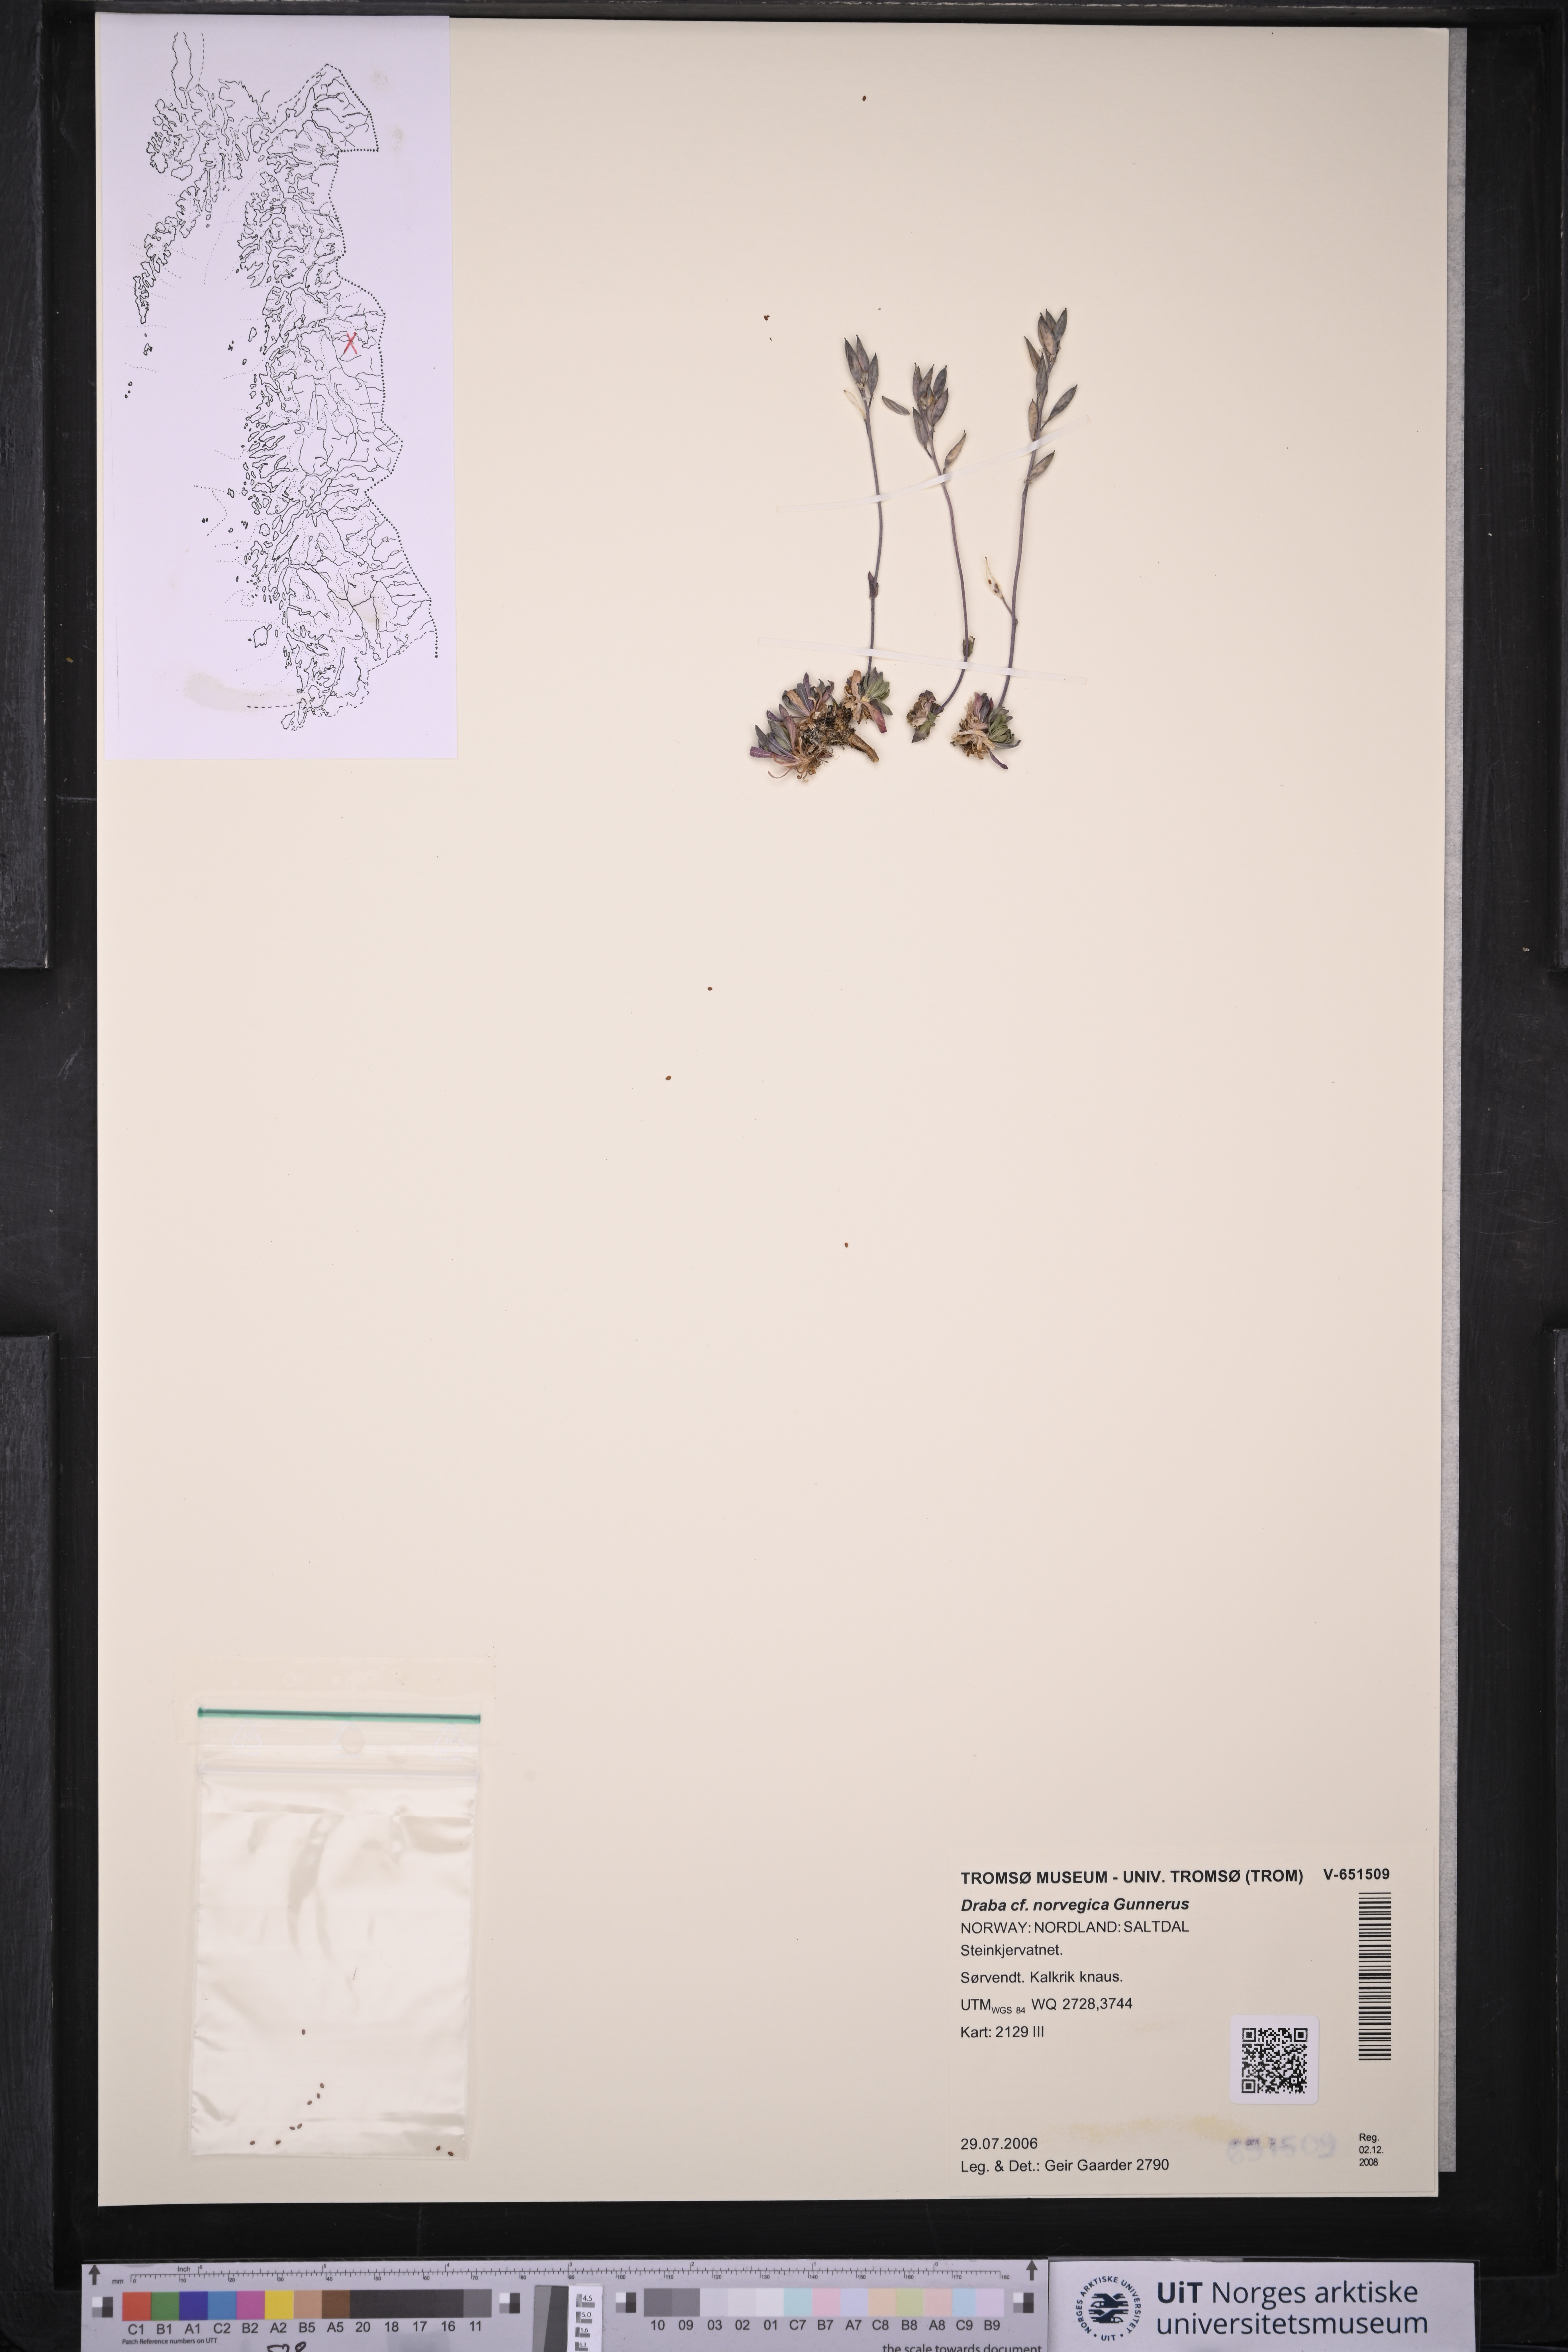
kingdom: Plantae
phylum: Tracheophyta
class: Magnoliopsida
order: Brassicales
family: Brassicaceae
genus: Draba
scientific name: Draba norvegica
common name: Rock whitlowgrass
